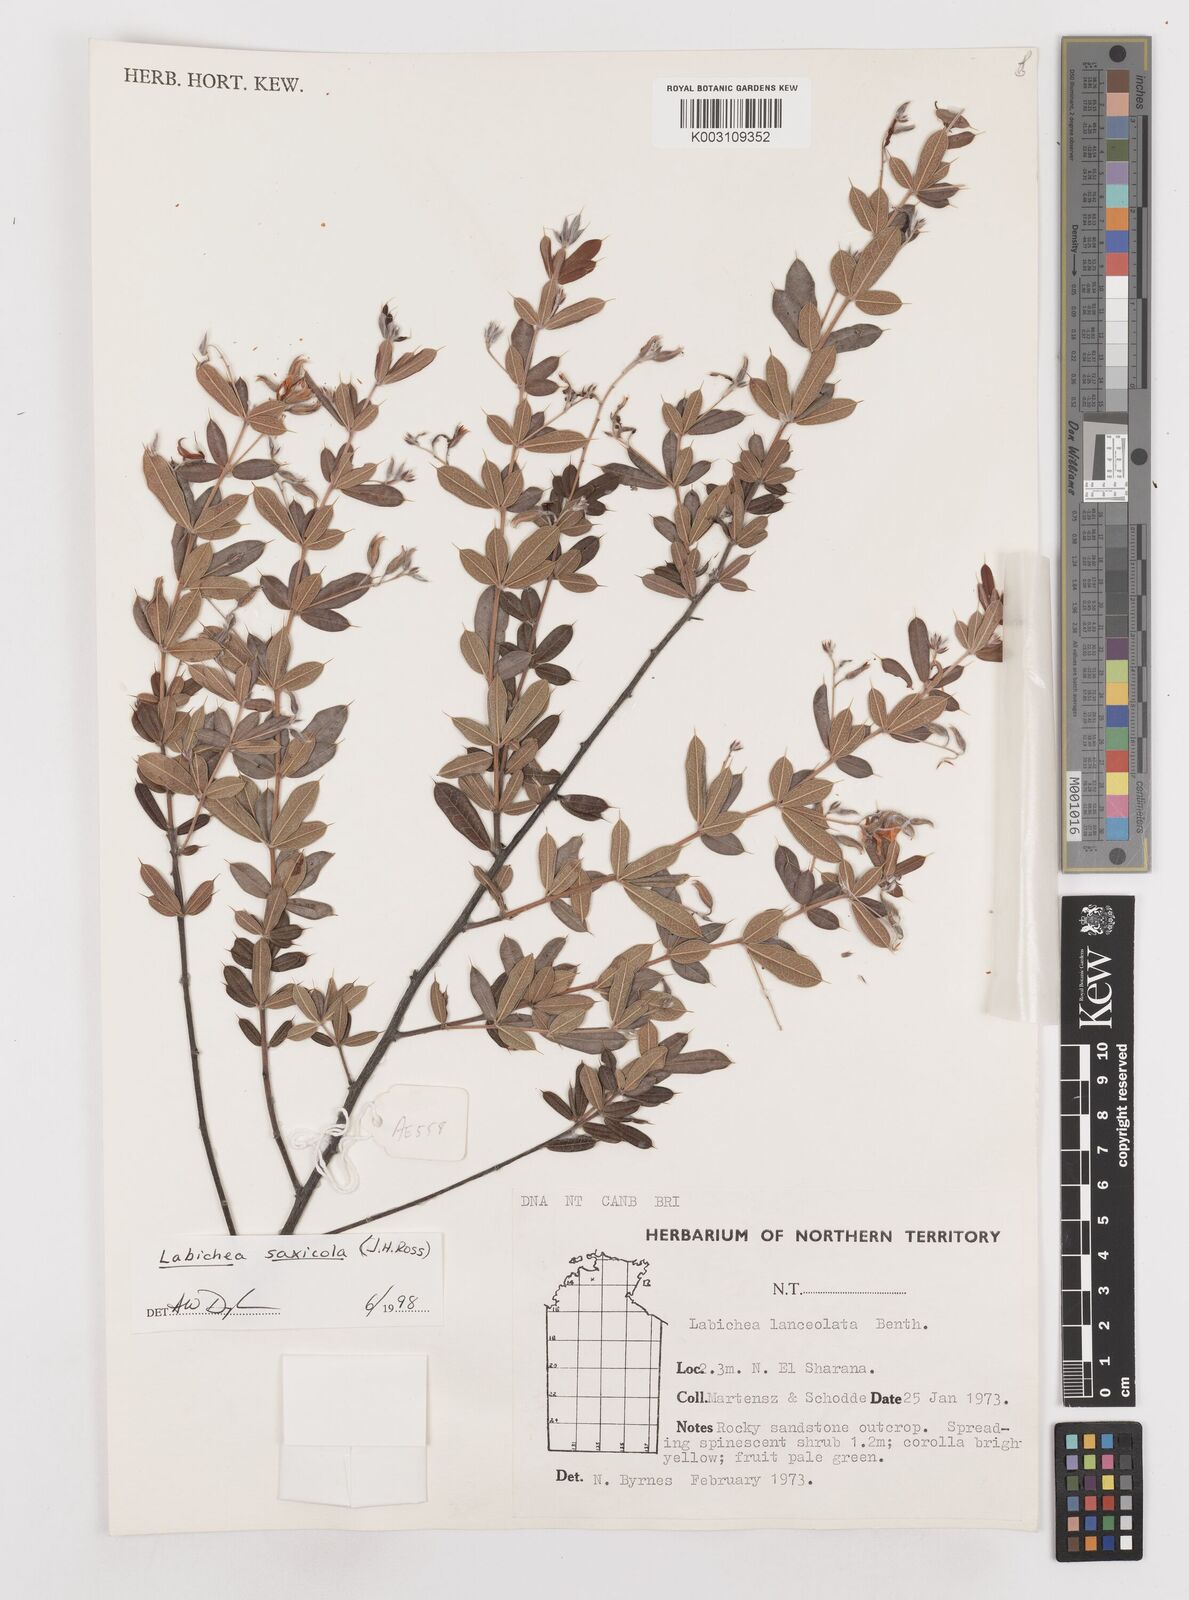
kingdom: Plantae
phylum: Tracheophyta
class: Magnoliopsida
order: Fabales
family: Fabaceae
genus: Labichea
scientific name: Labichea saxicola
